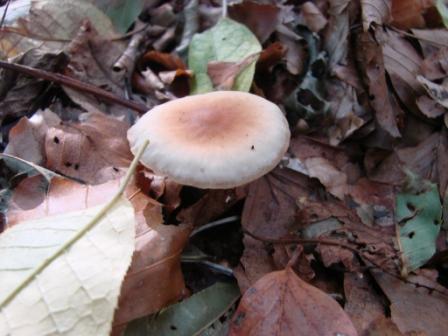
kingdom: Fungi
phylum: Basidiomycota
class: Agaricomycetes
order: Agaricales
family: Omphalotaceae
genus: Gymnopus
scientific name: Gymnopus dryophilus
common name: løv-fladhat
